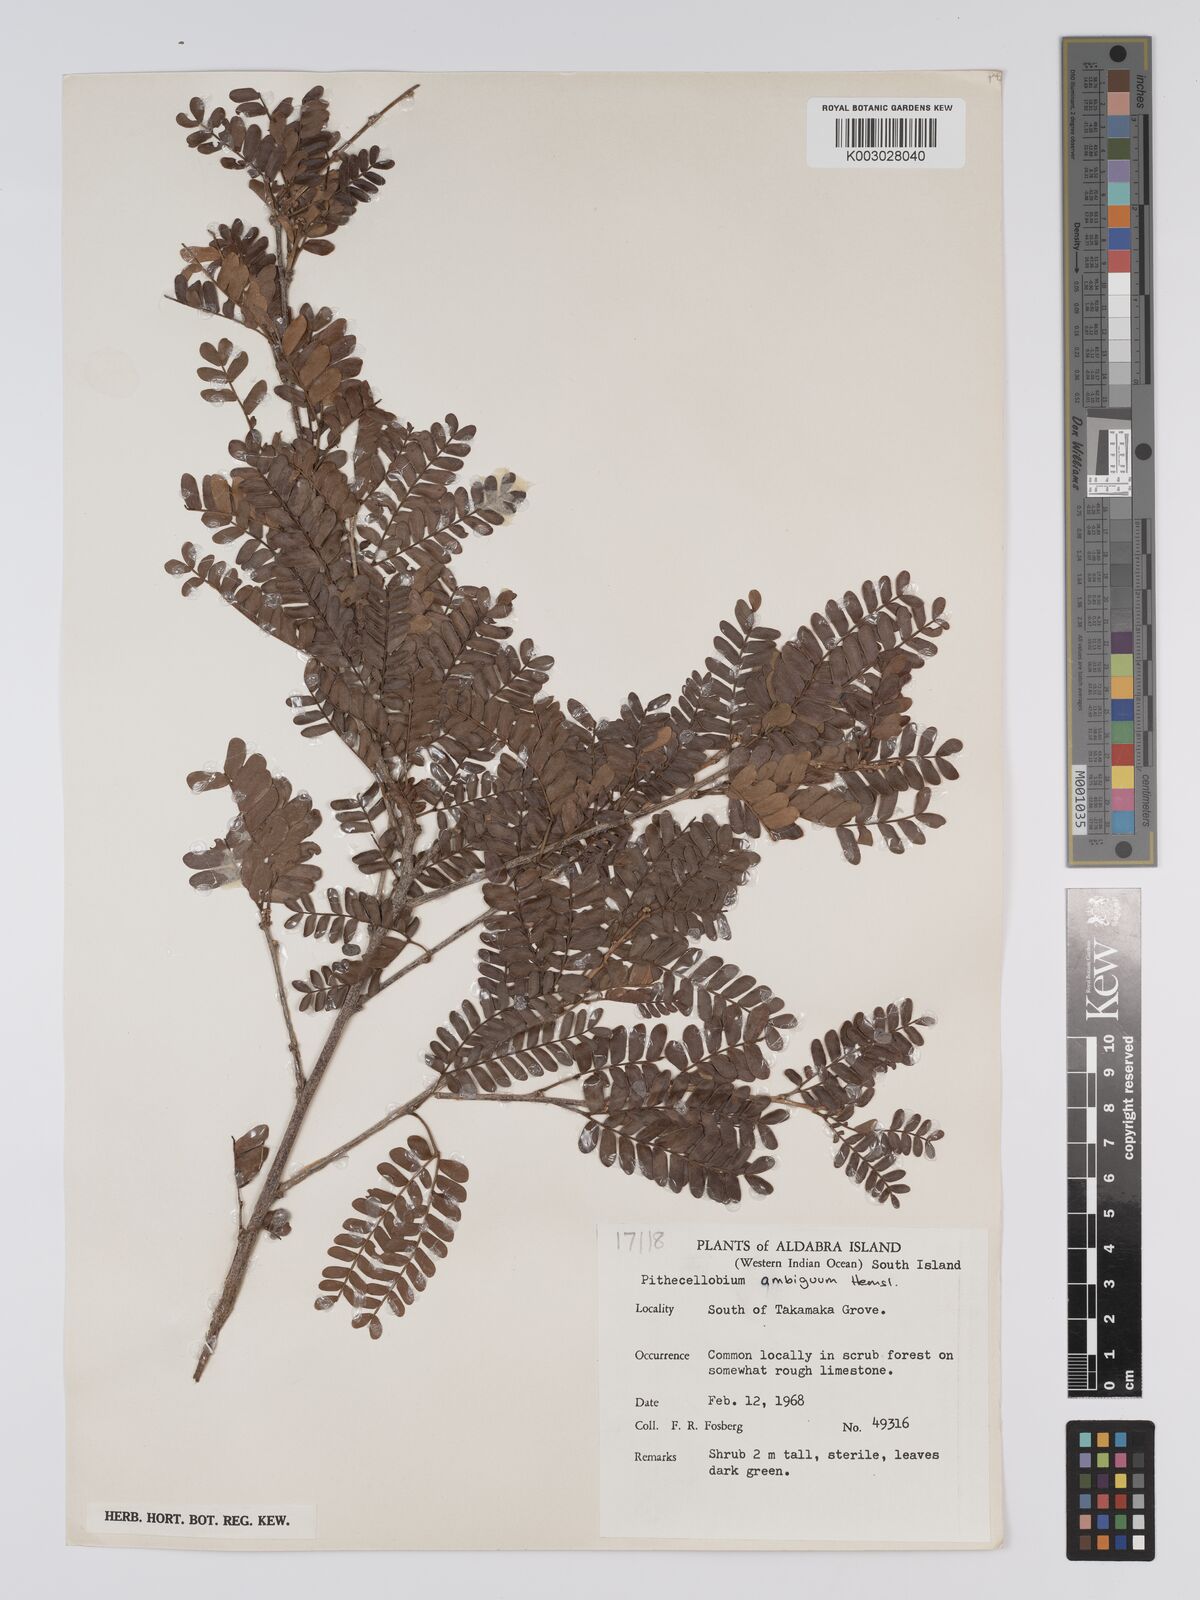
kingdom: Plantae
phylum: Tracheophyta
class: Magnoliopsida
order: Fabales
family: Fabaceae
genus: Viguieranthus
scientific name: Viguieranthus alternans
